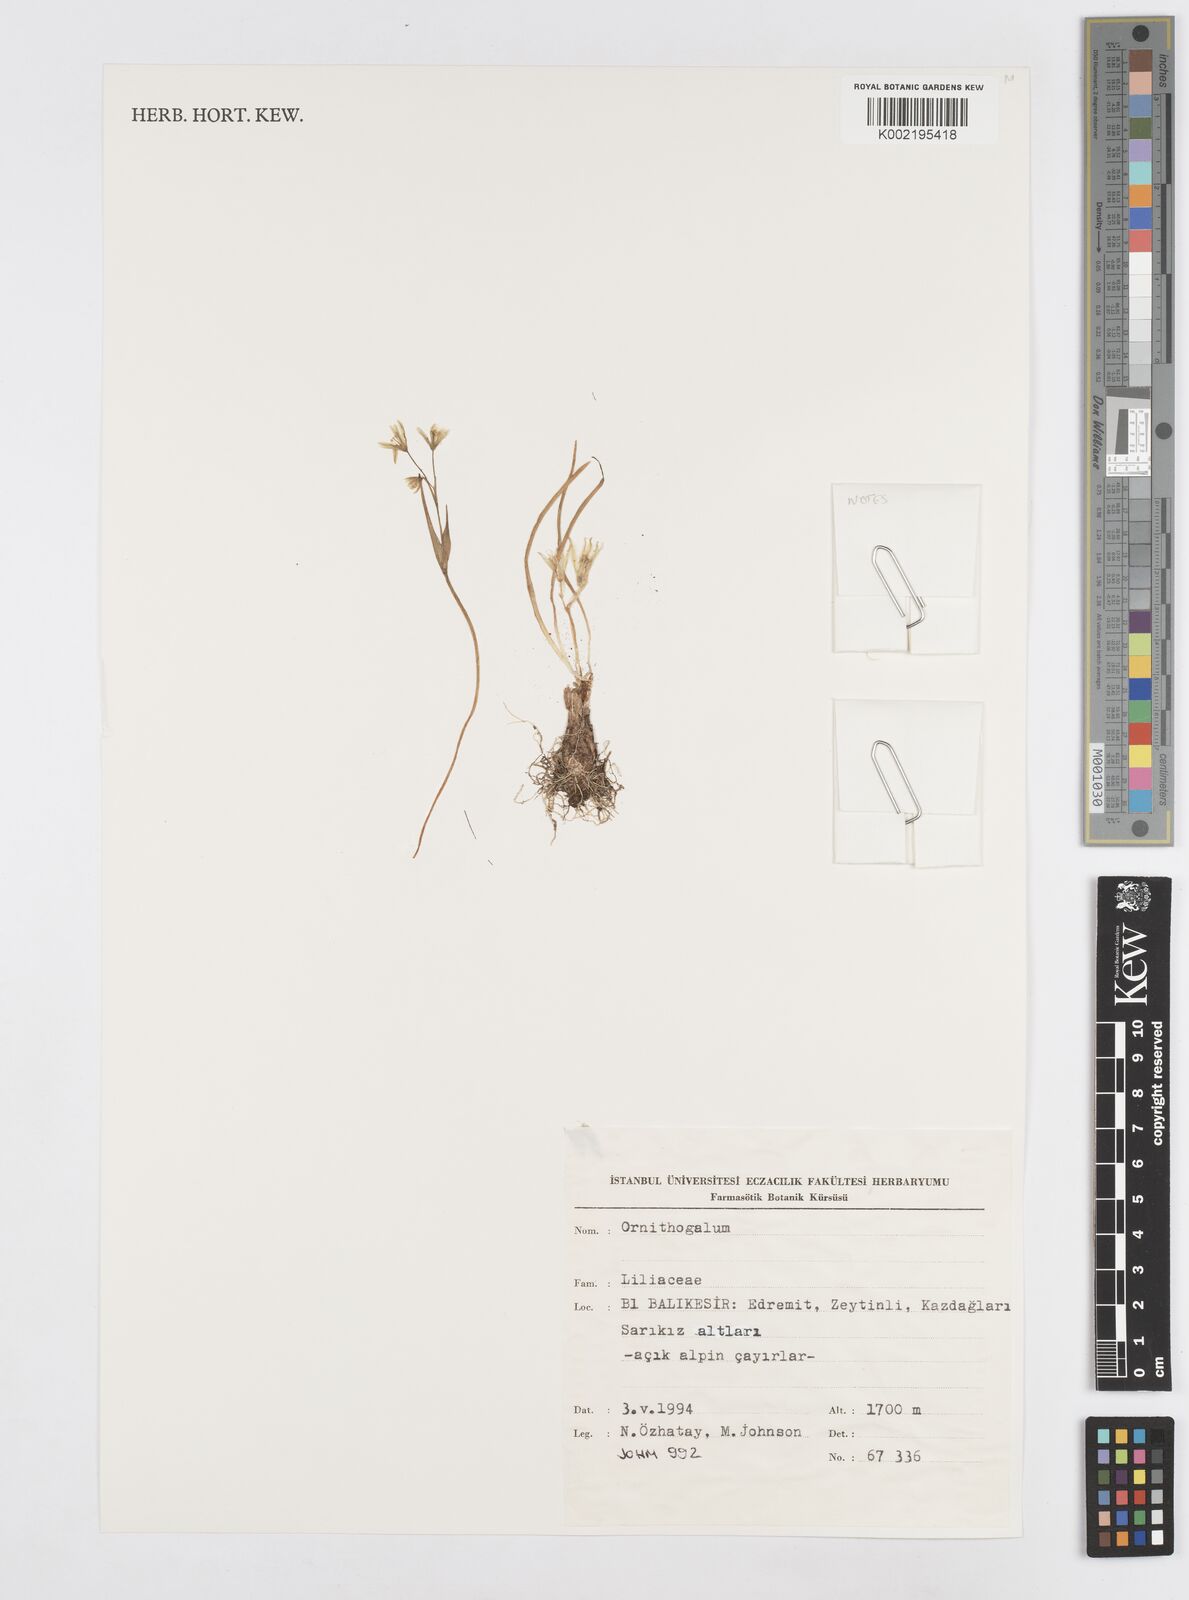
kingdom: Plantae
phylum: Tracheophyta
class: Liliopsida
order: Asparagales
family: Asparagaceae
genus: Ornithogalum
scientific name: Ornithogalum
